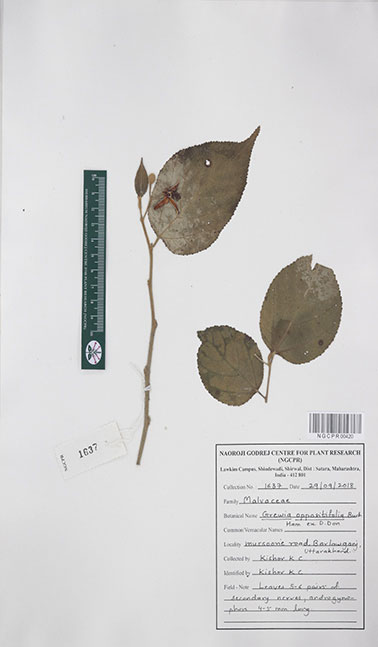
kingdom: Plantae
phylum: Tracheophyta
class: Magnoliopsida
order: Malvales
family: Malvaceae
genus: Grewia
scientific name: Grewia oppositifolia
